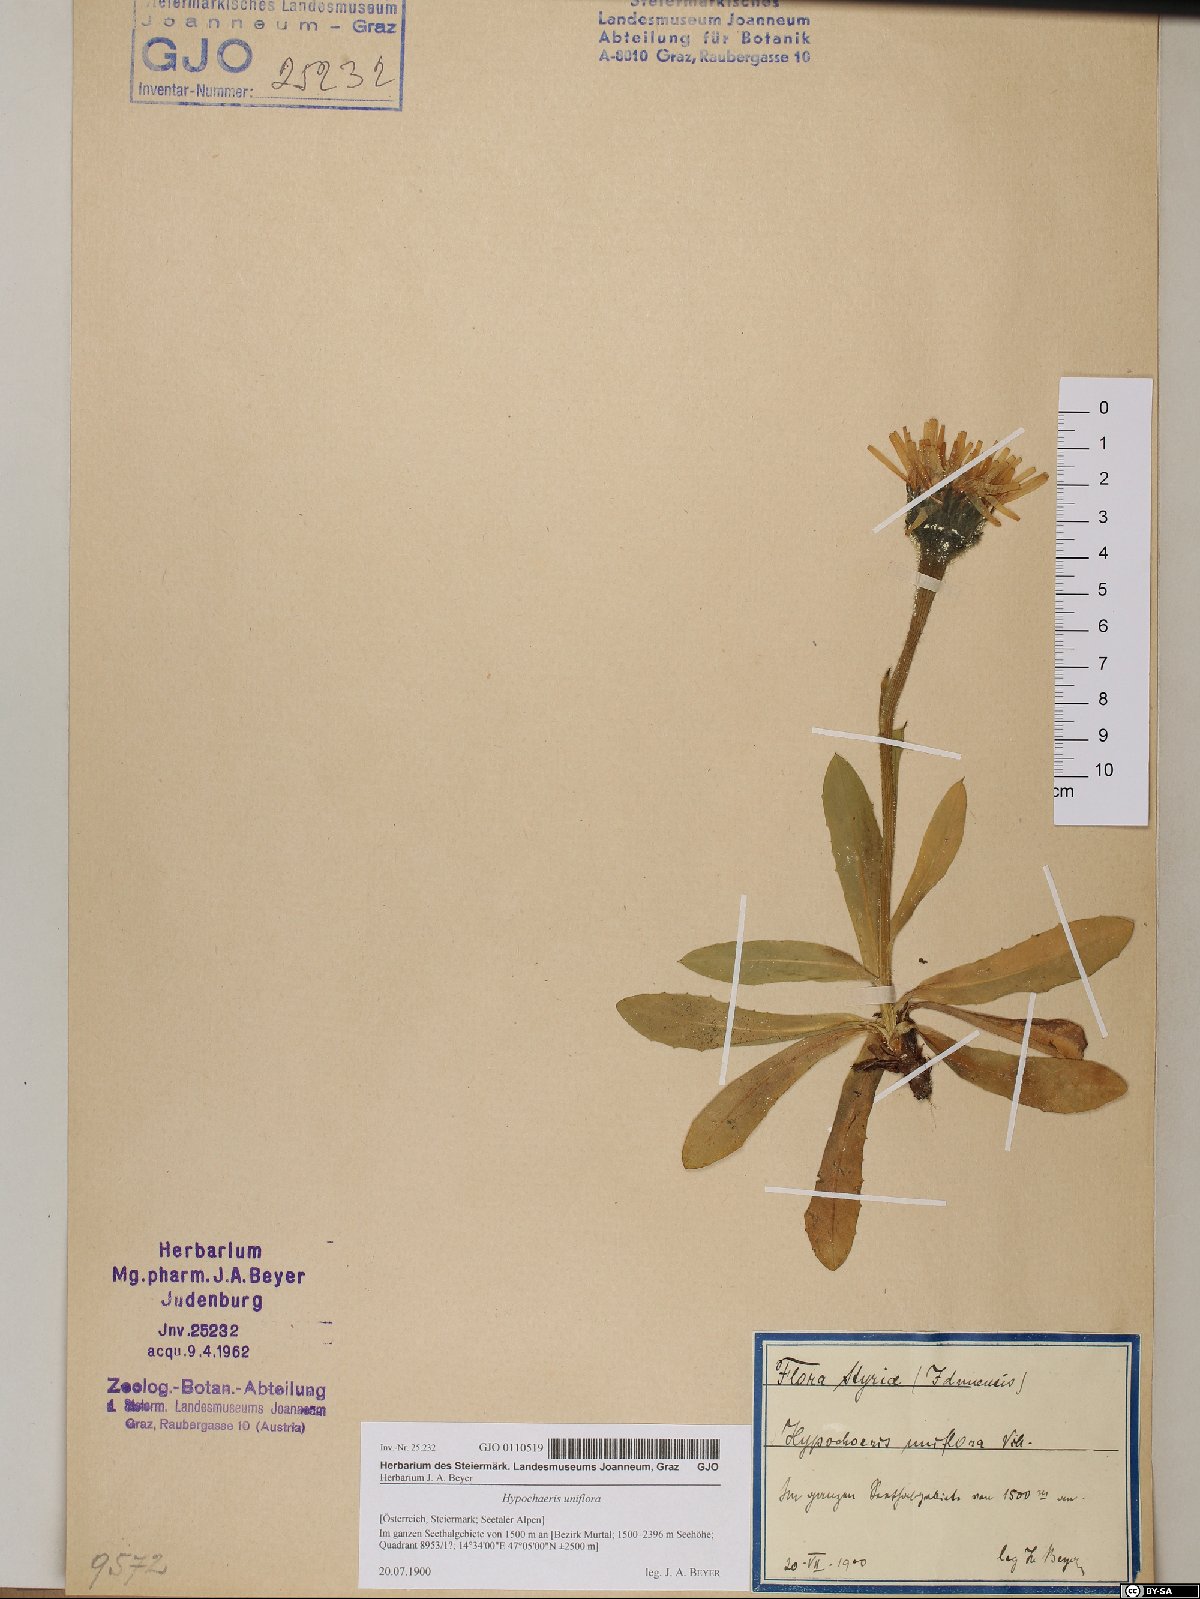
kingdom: Plantae
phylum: Tracheophyta
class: Magnoliopsida
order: Asterales
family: Asteraceae
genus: Trommsdorffia
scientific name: Trommsdorffia uniflora
